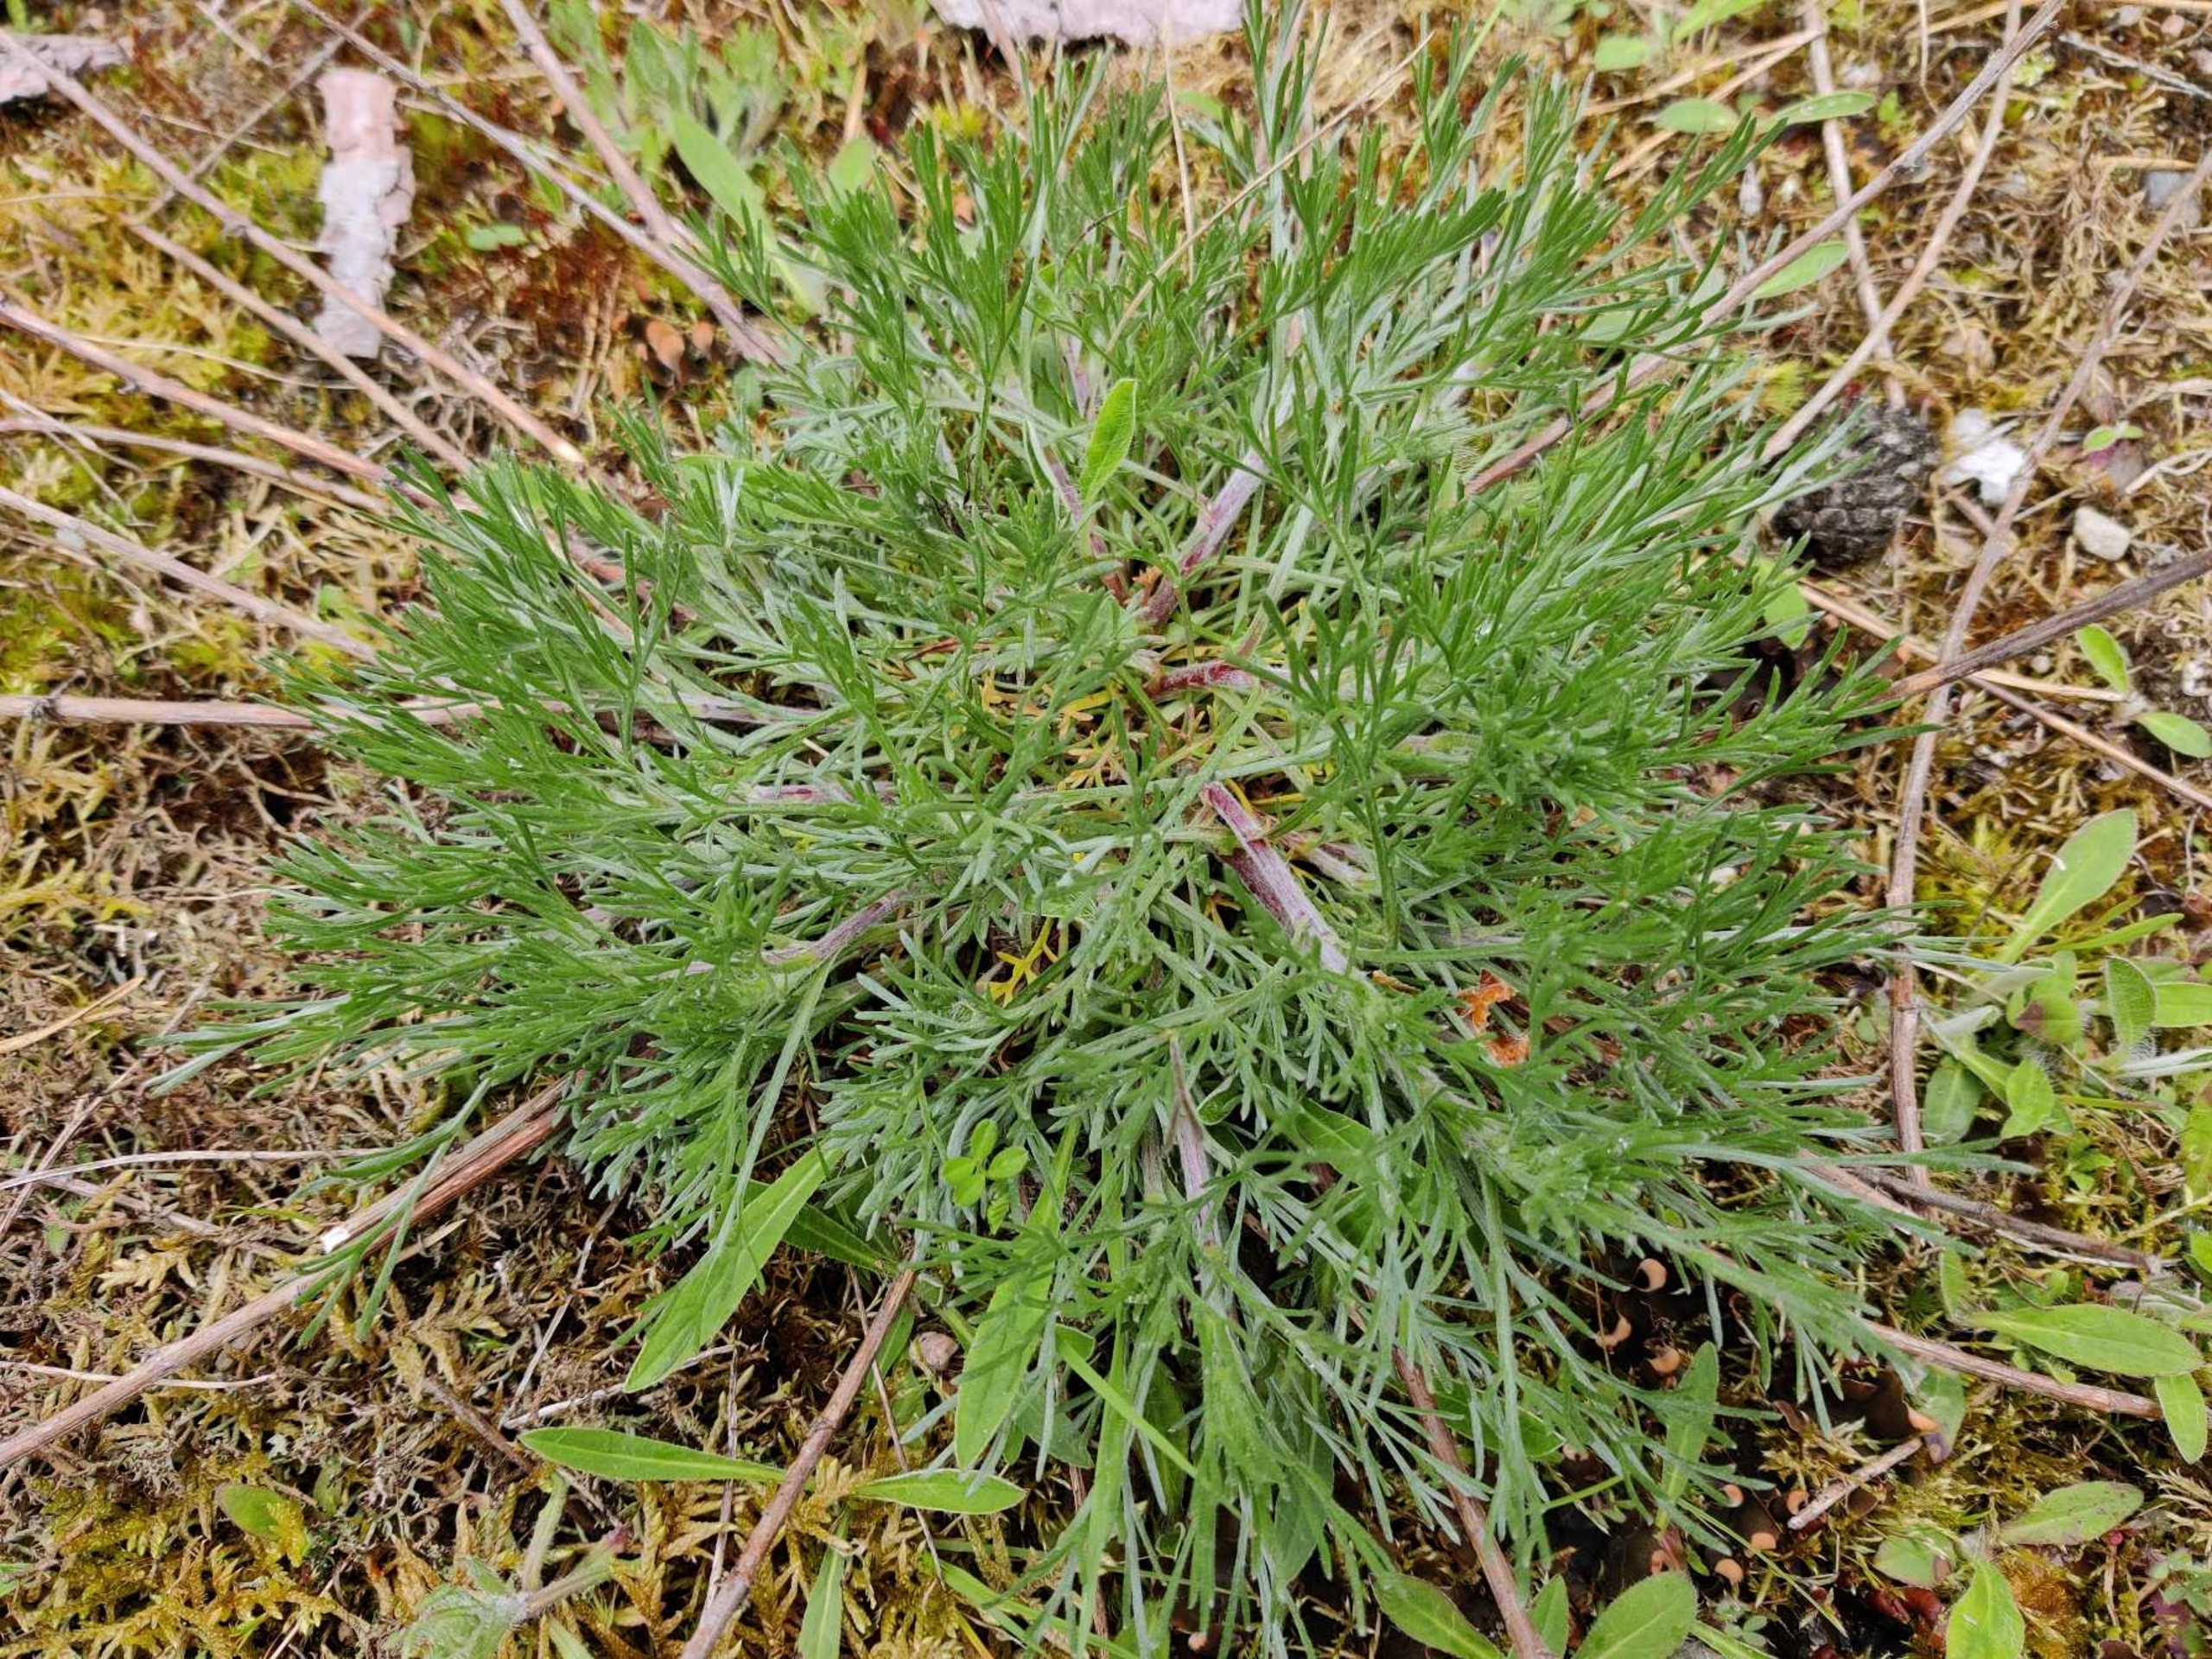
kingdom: Plantae
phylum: Tracheophyta
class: Magnoliopsida
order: Asterales
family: Asteraceae
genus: Artemisia
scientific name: Artemisia campestris
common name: Mark-bynke
